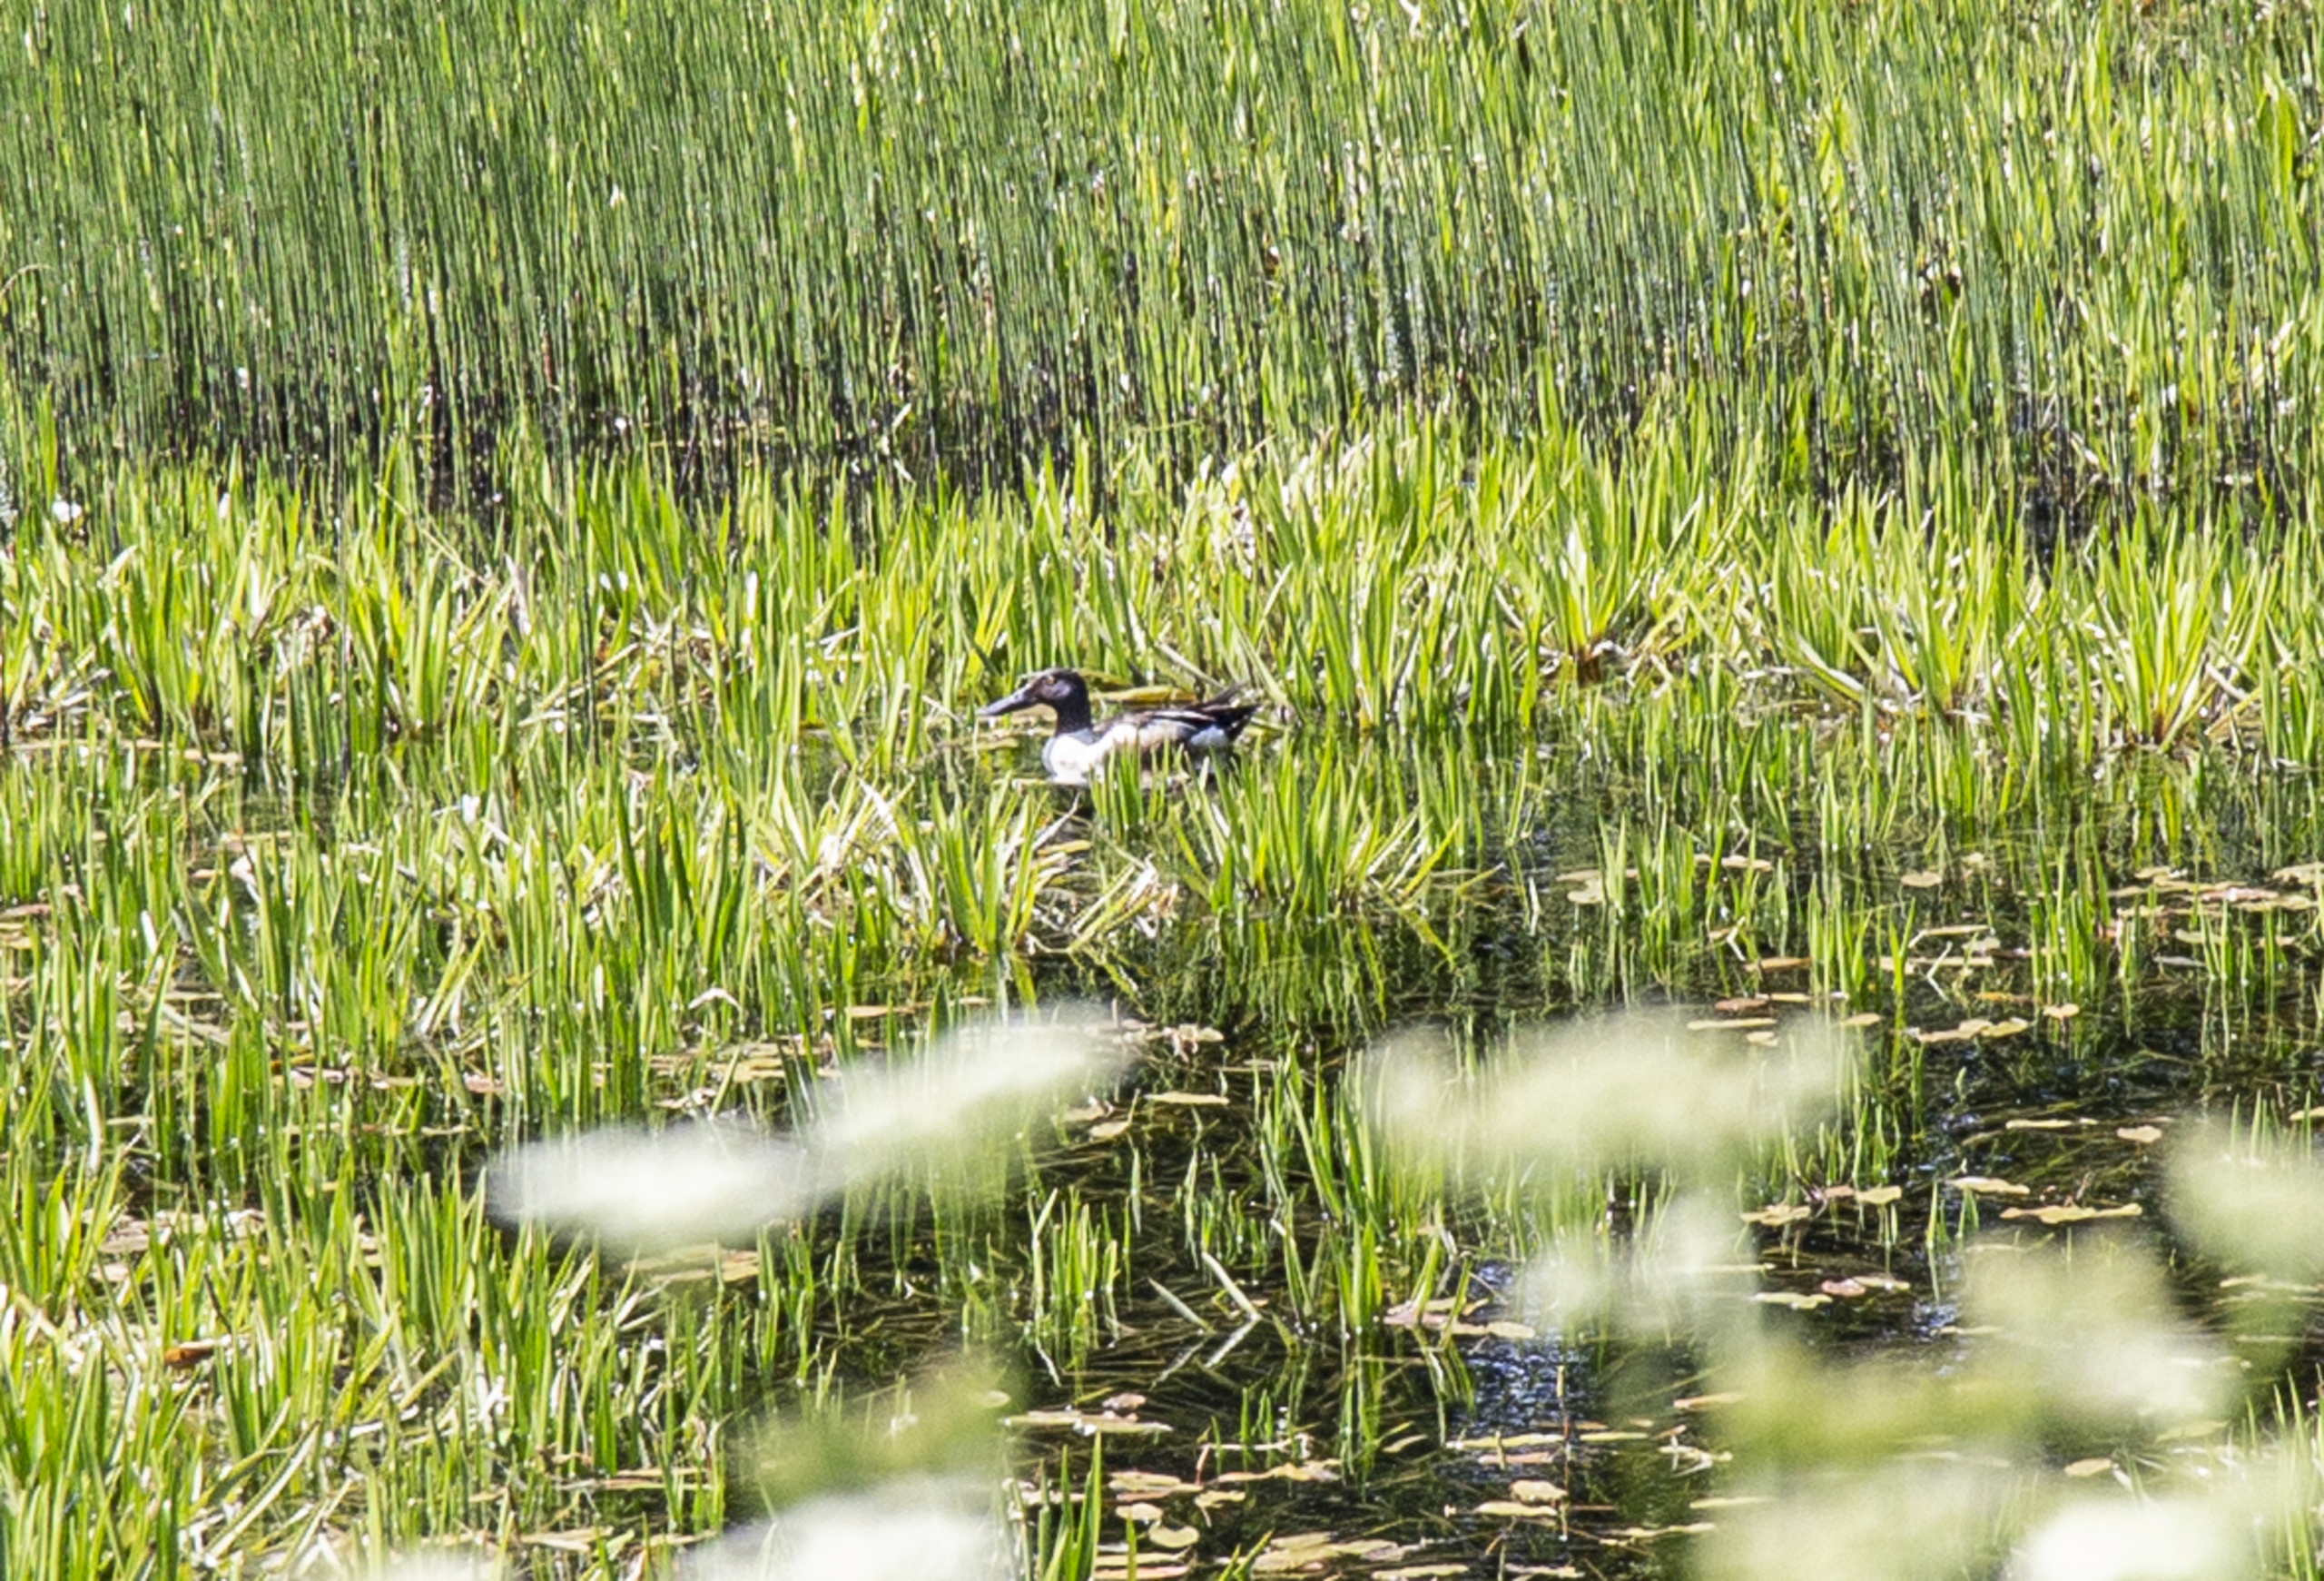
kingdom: Animalia
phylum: Chordata
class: Aves
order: Anseriformes
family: Anatidae
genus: Spatula
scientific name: Spatula clypeata
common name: Skeand
